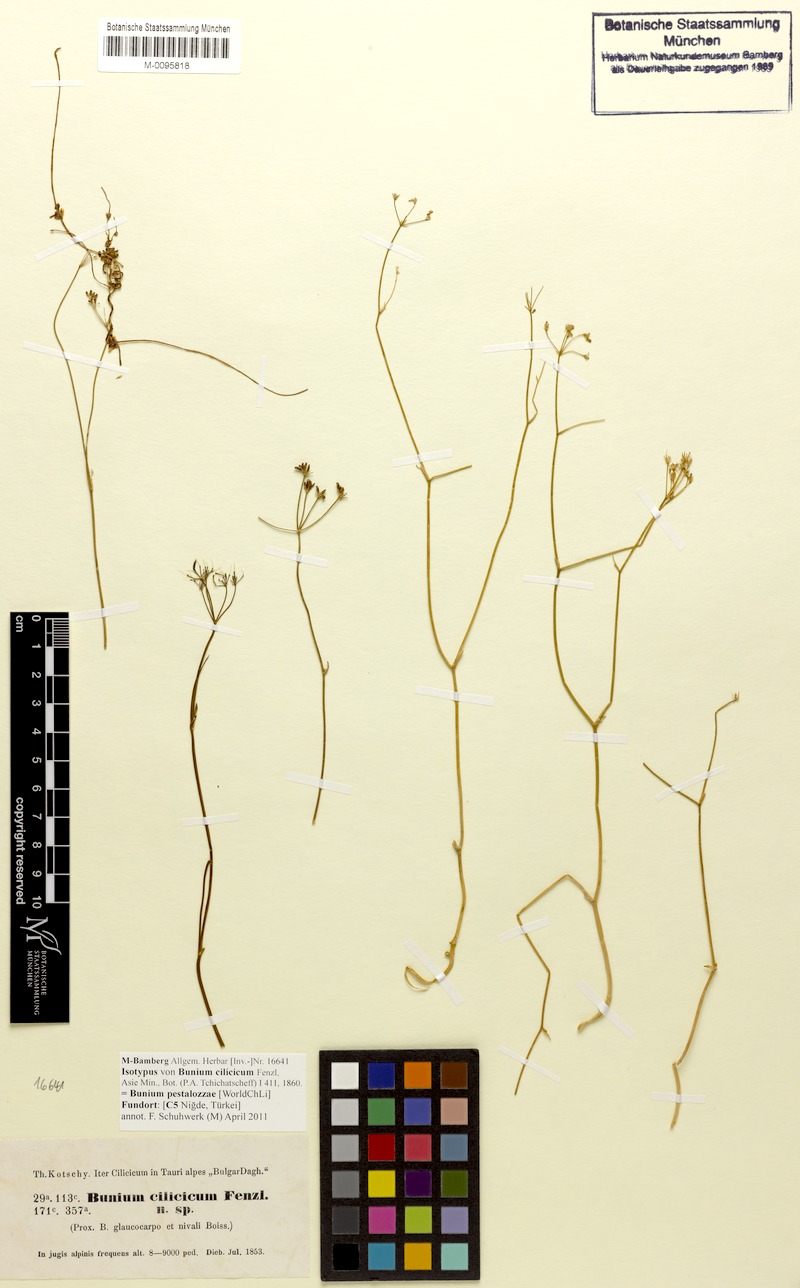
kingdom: Plantae
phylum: Tracheophyta
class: Magnoliopsida
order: Apiales
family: Apiaceae
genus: Bunium
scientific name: Bunium pestalozzae
